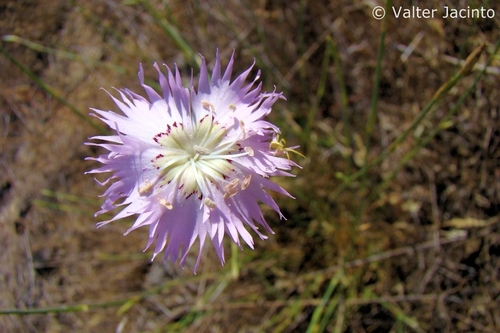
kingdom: Plantae
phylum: Tracheophyta
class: Magnoliopsida
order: Caryophyllales
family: Caryophyllaceae
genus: Dianthus
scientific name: Dianthus broteri
